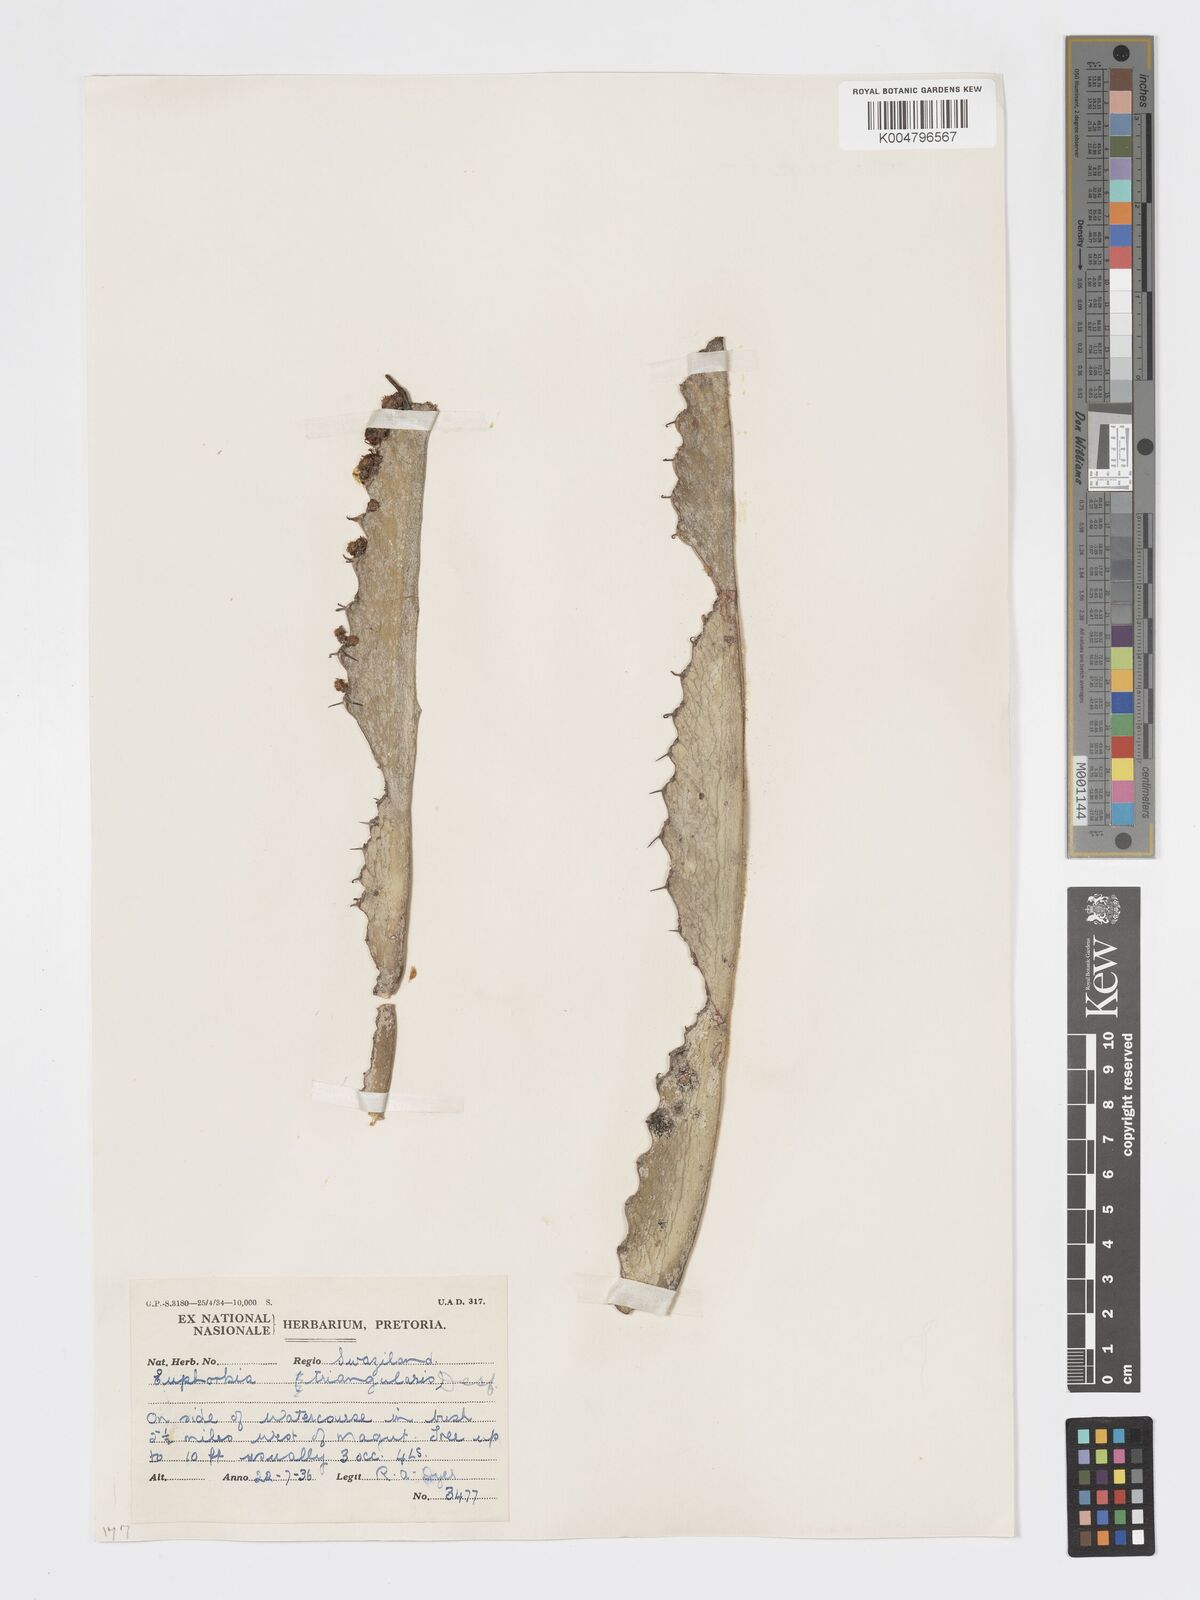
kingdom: Plantae
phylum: Tracheophyta
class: Magnoliopsida
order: Malpighiales
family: Euphorbiaceae
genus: Euphorbia
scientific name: Euphorbia triangularis
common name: Chandelier tree
